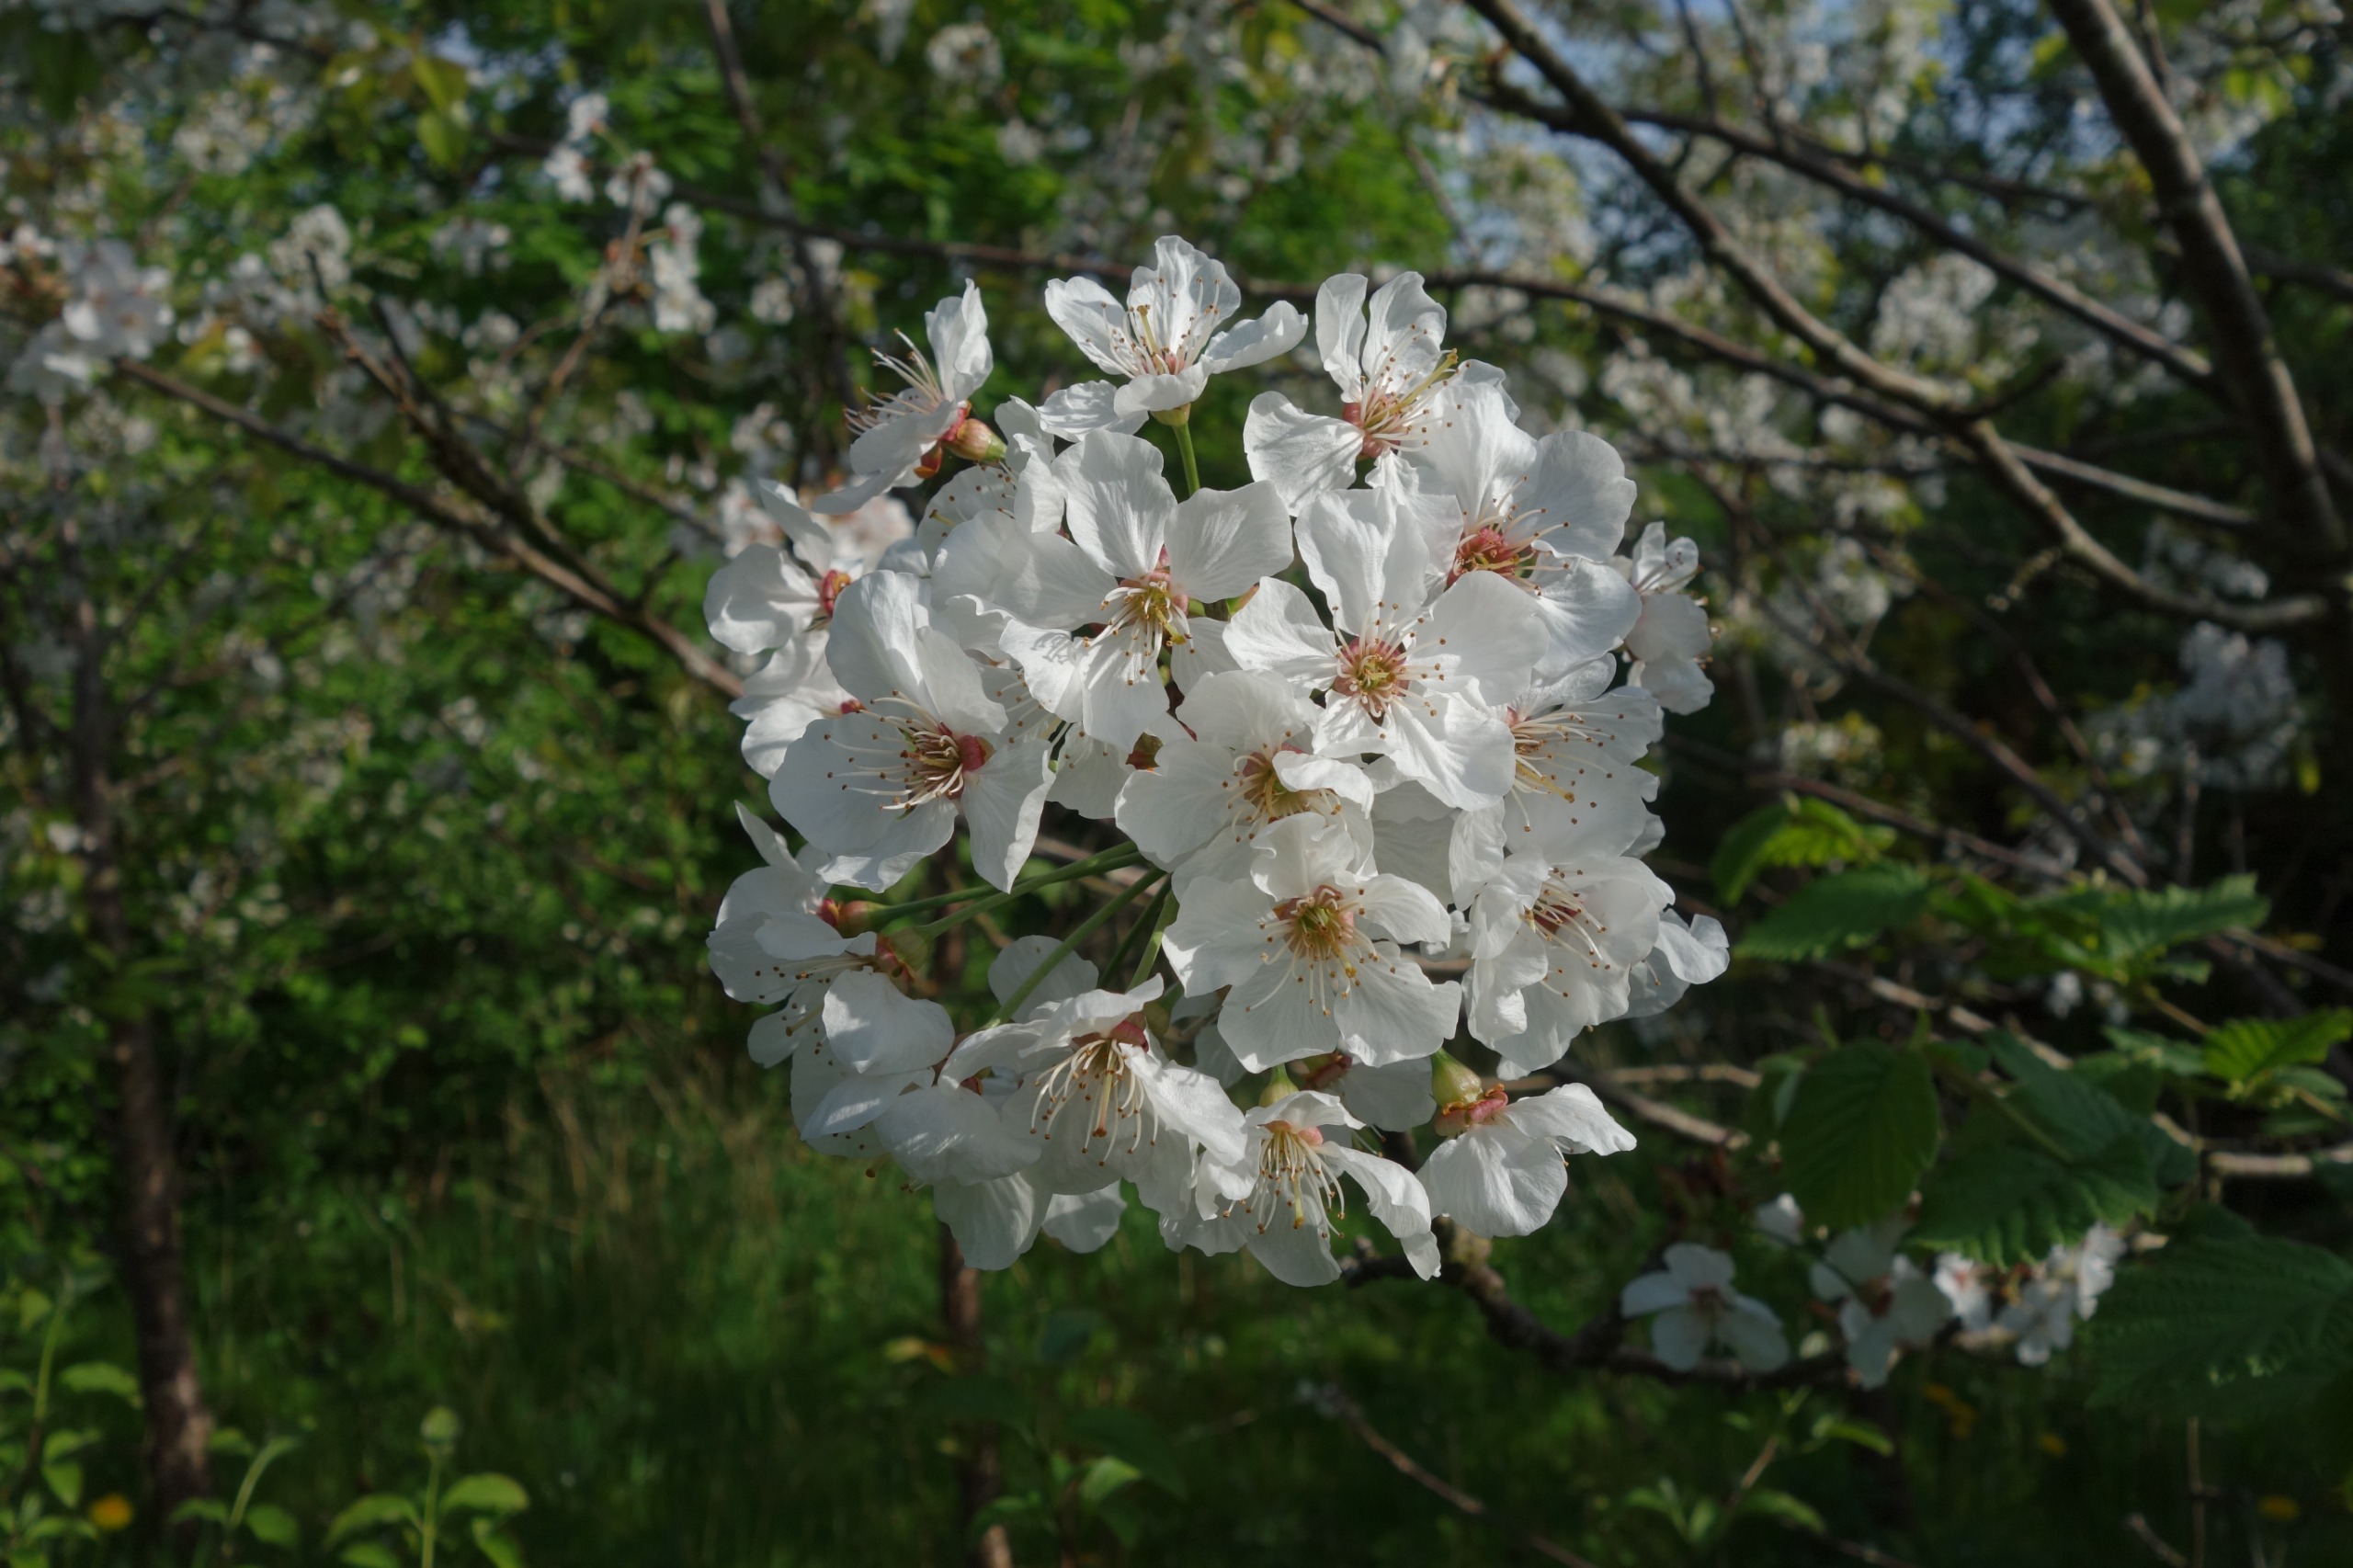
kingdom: Plantae
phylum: Tracheophyta
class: Magnoliopsida
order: Rosales
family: Rosaceae
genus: Prunus
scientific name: Prunus avium
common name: Fugle-kirsebær
